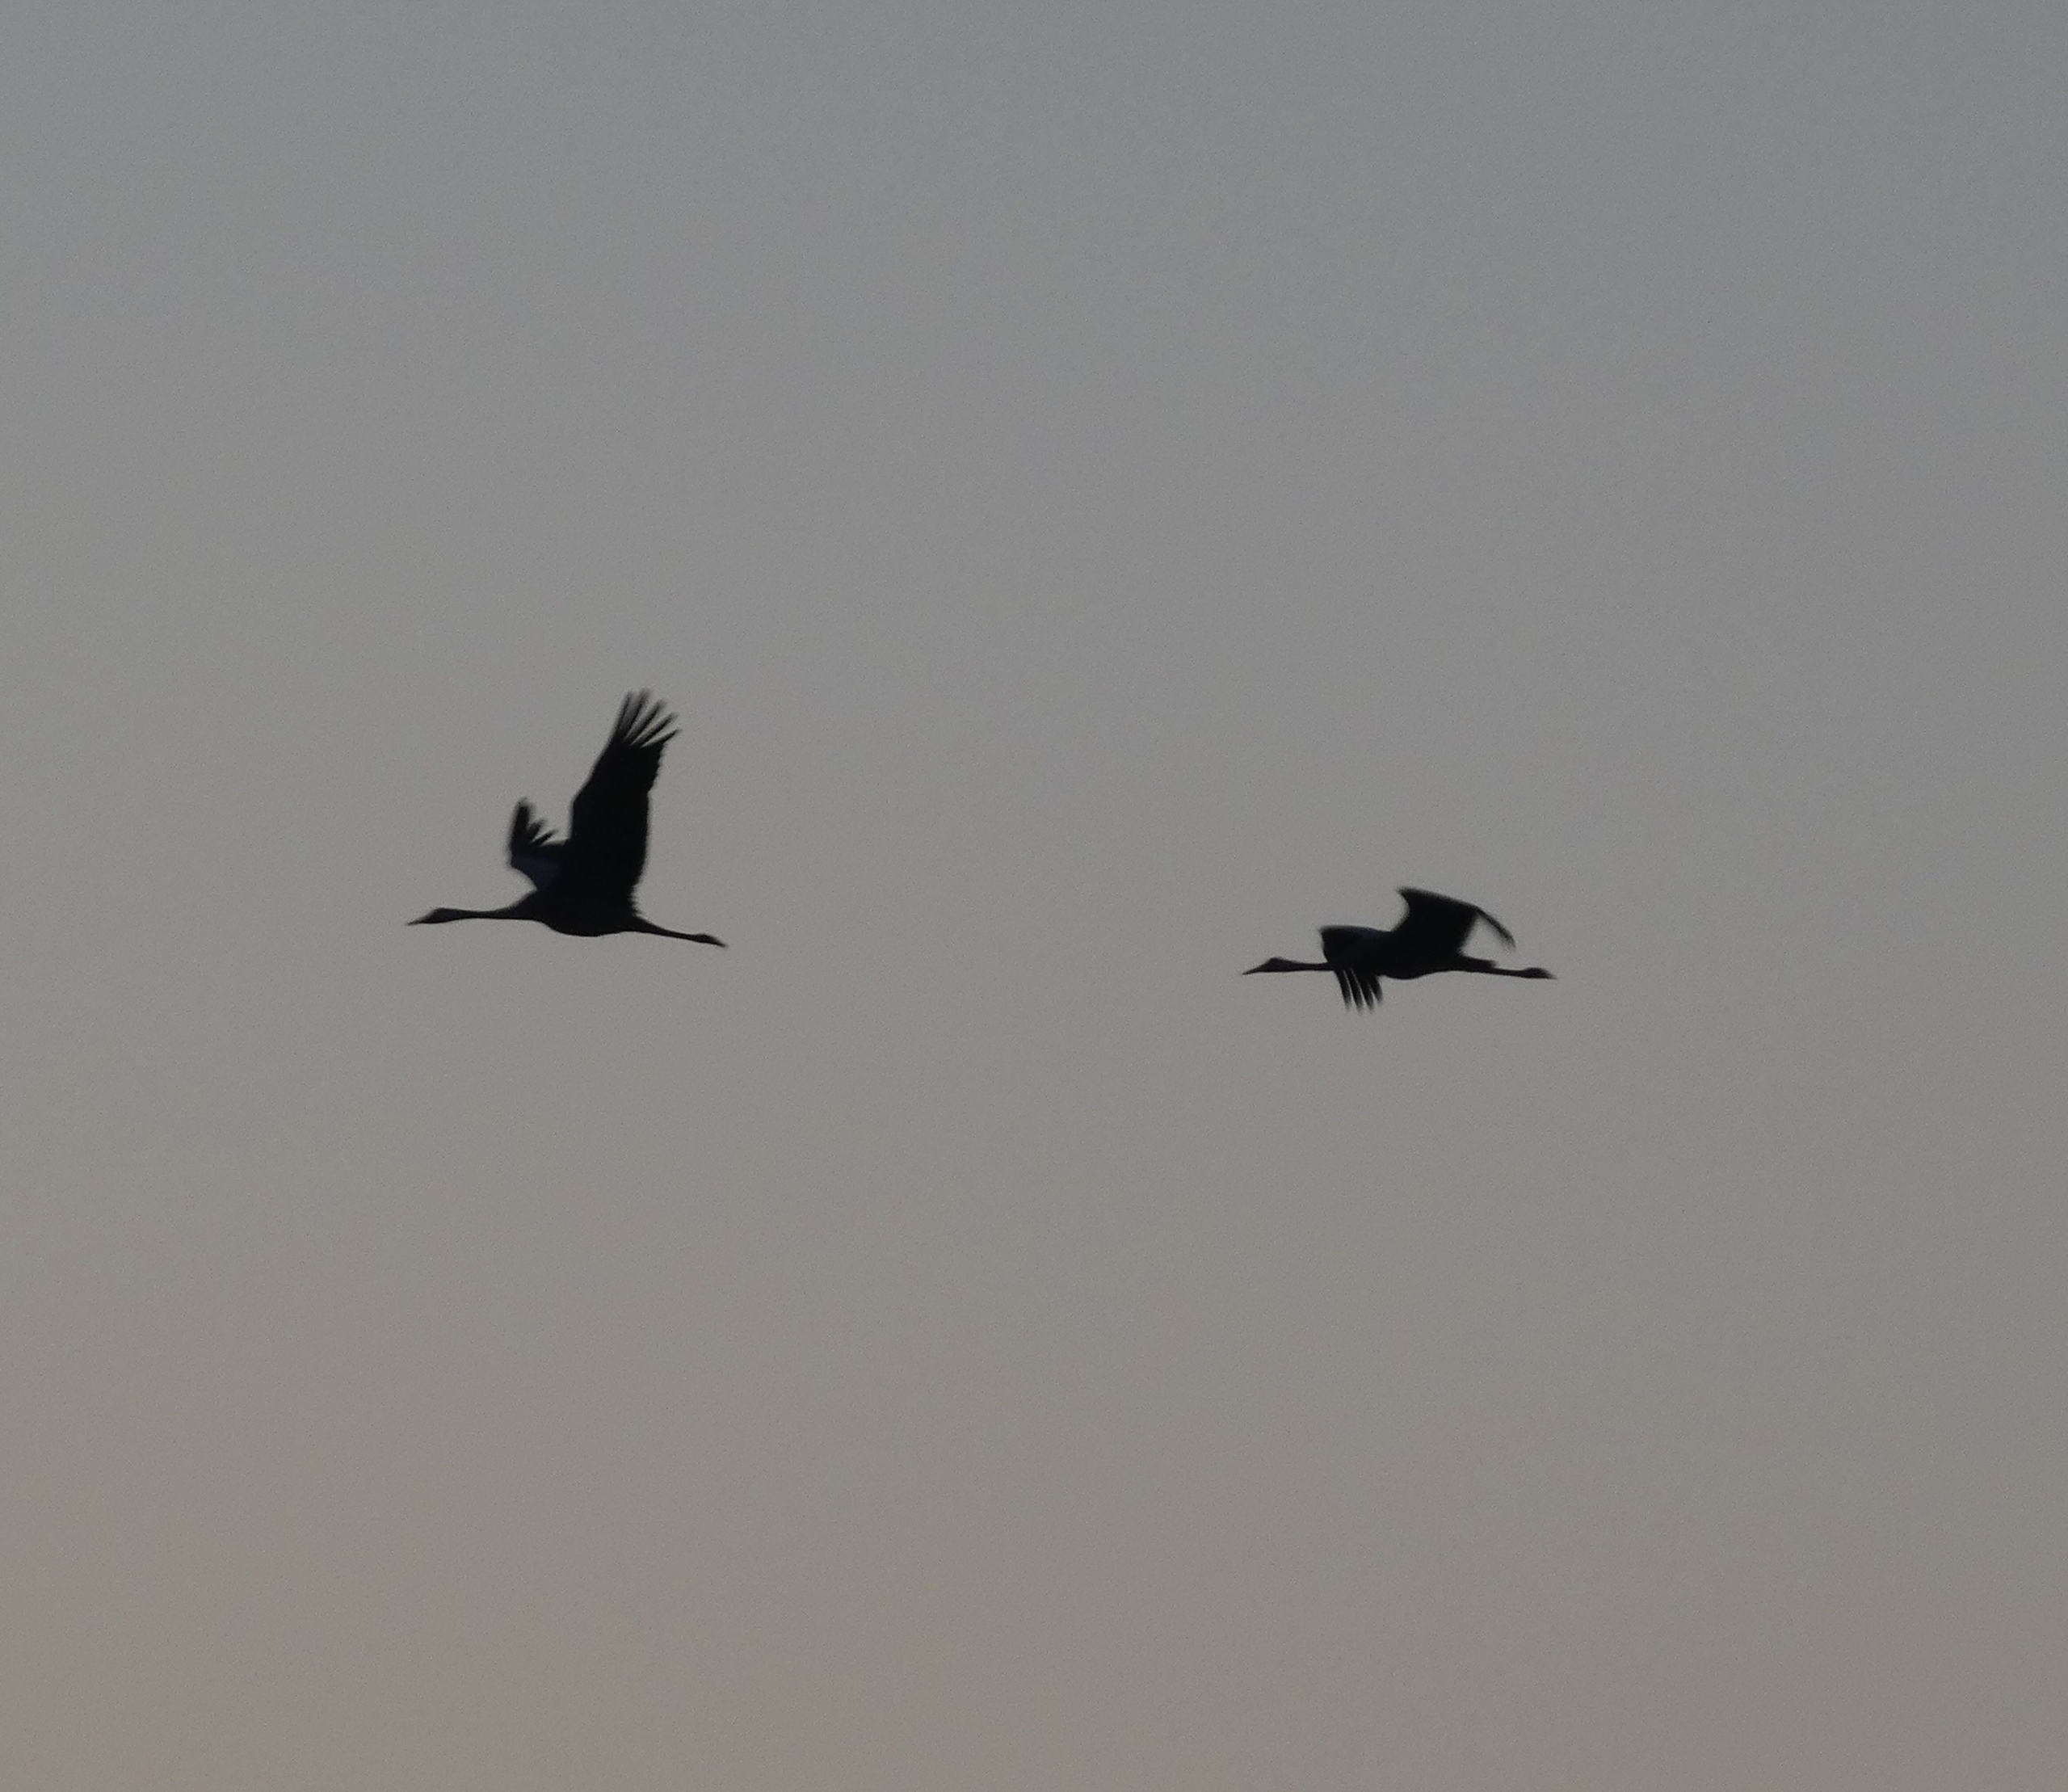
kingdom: Animalia
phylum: Chordata
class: Aves
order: Gruiformes
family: Gruidae
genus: Grus
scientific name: Grus grus
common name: Trane
